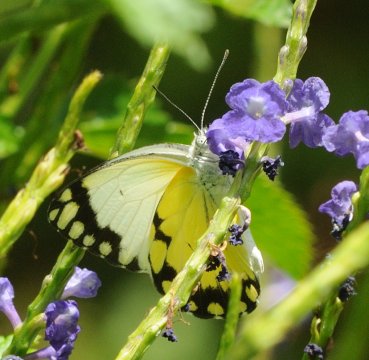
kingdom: Animalia
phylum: Arthropoda
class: Insecta
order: Lepidoptera
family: Pieridae
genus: Belenois
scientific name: Belenois creona
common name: African Caper
